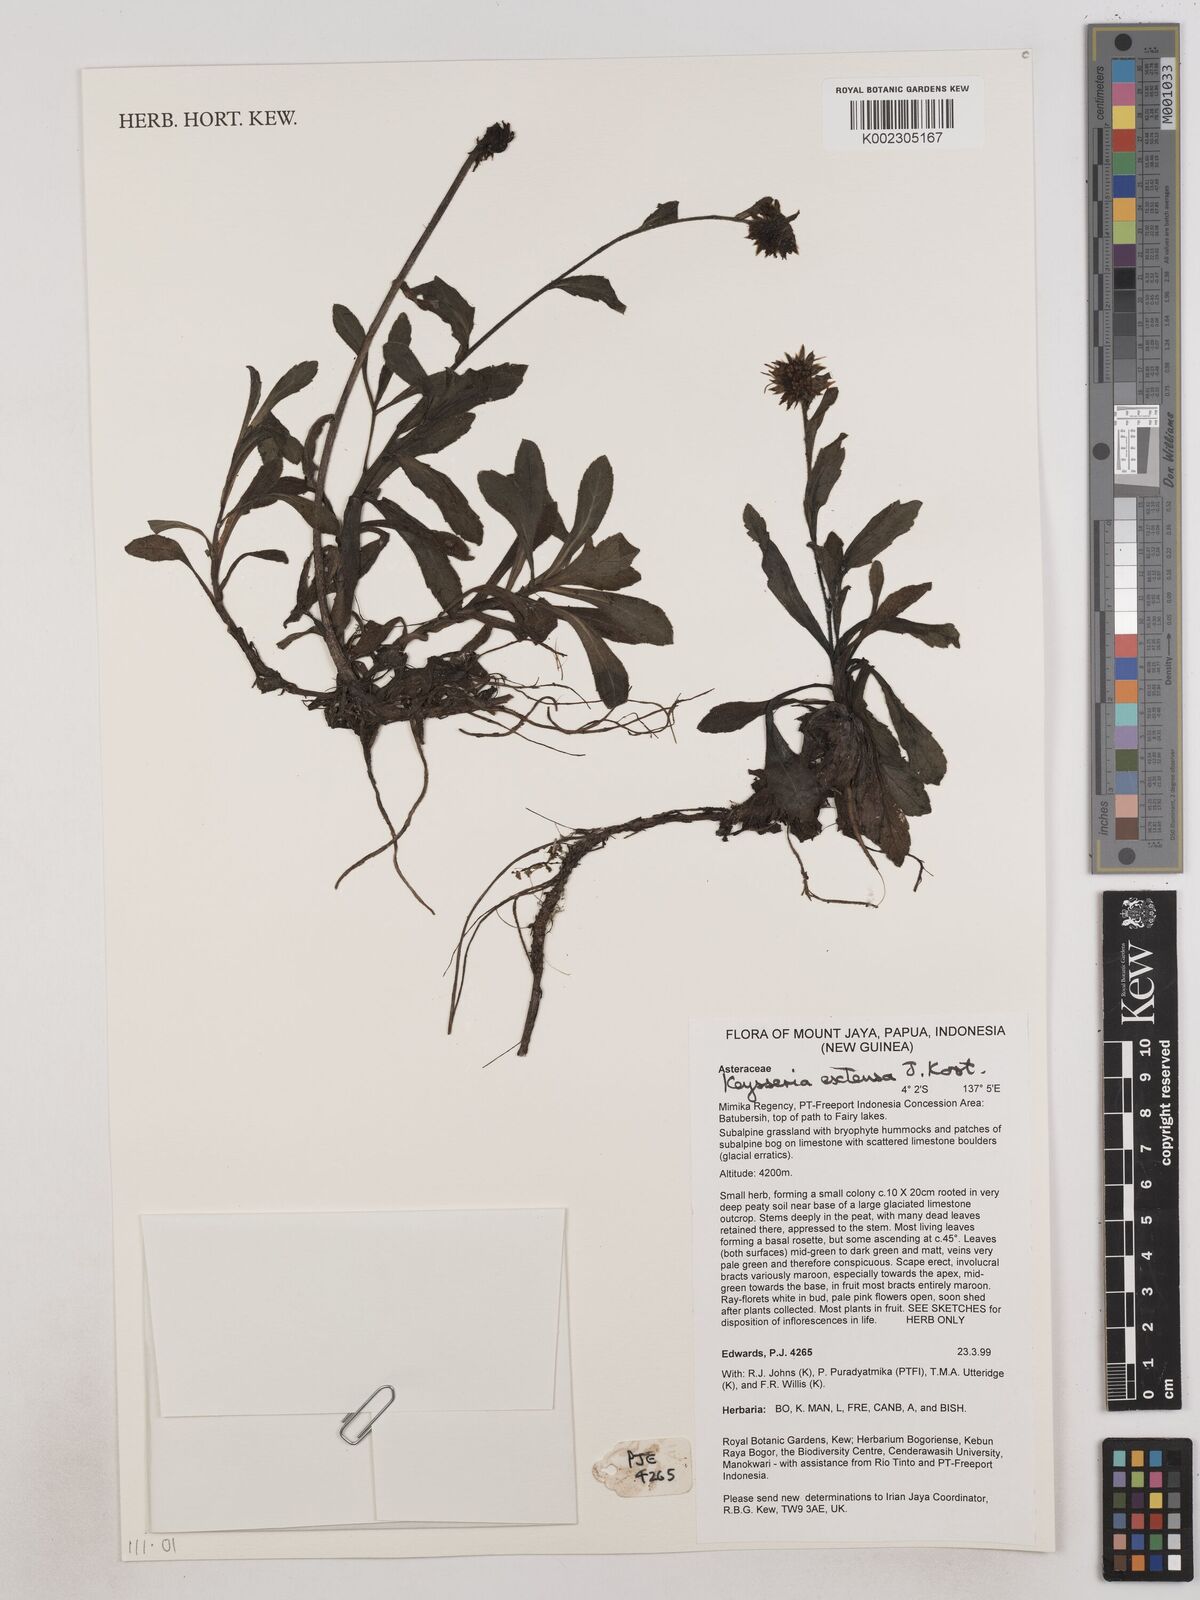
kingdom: Plantae
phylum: Tracheophyta
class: Magnoliopsida
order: Asterales
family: Asteraceae
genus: Keysseria
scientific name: Keysseria extensa
